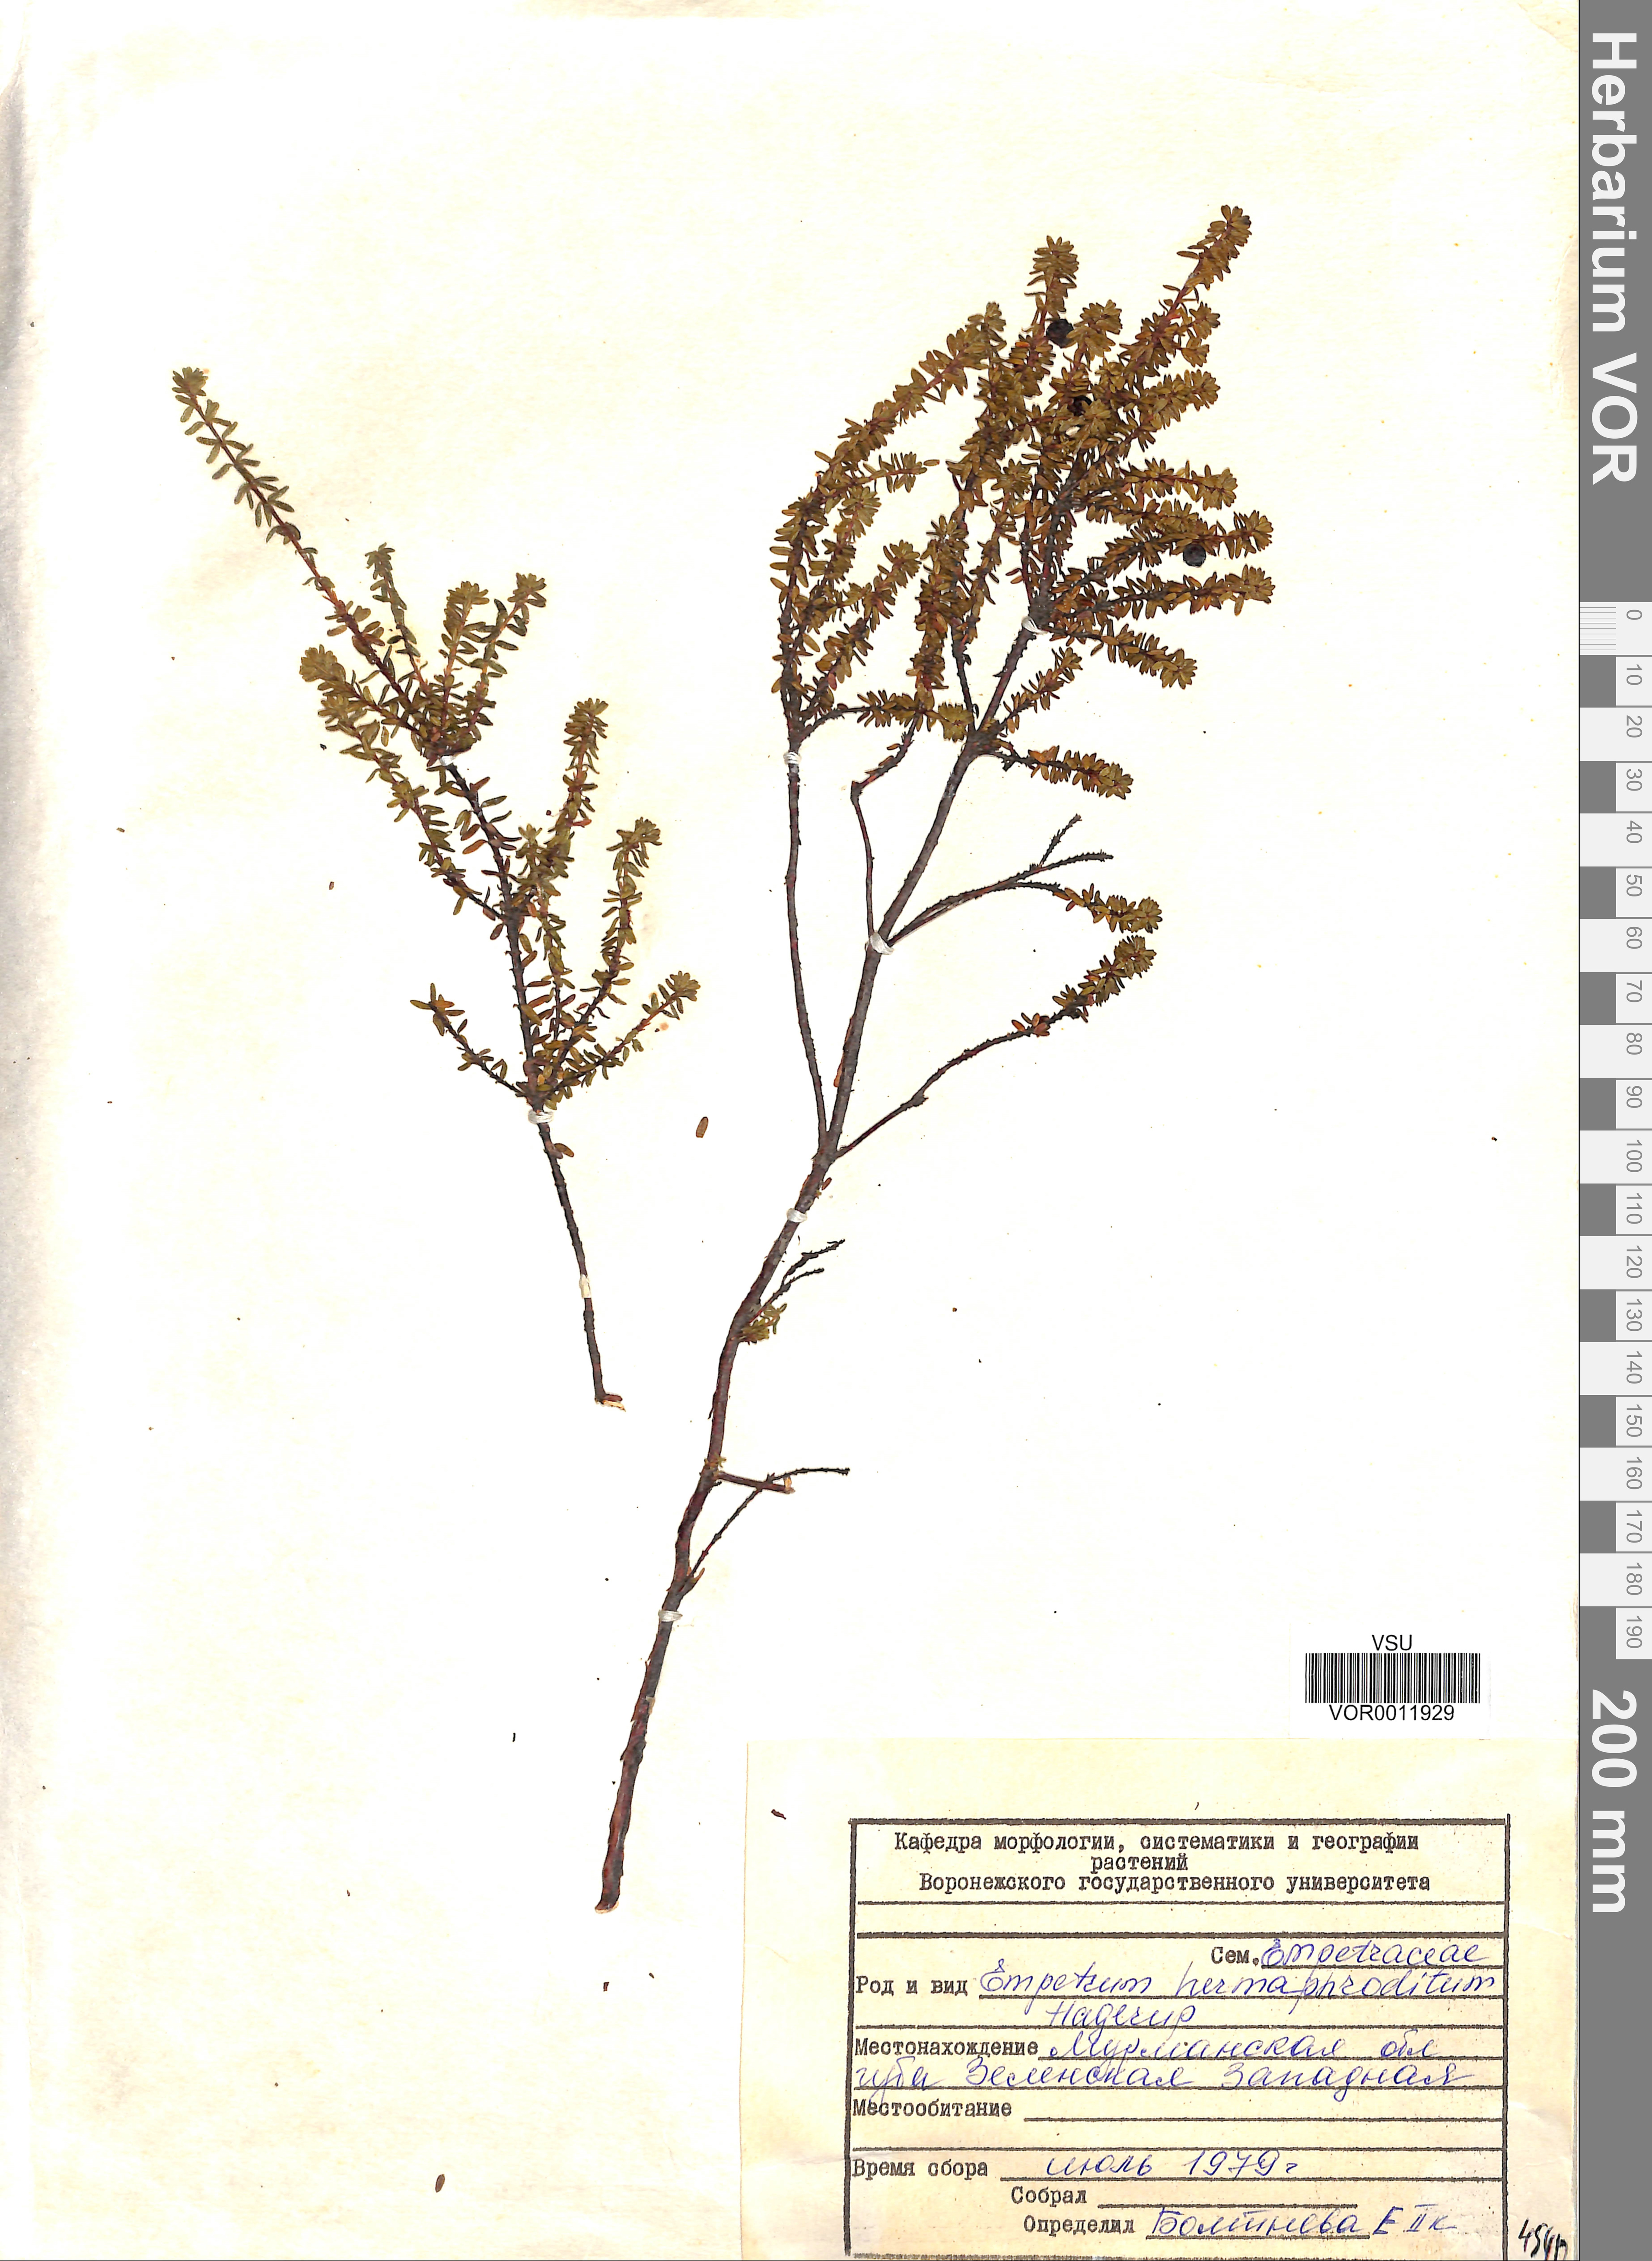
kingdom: Plantae
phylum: Tracheophyta
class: Magnoliopsida
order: Ericales
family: Ericaceae
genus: Empetrum
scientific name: Empetrum hermaphroditum
